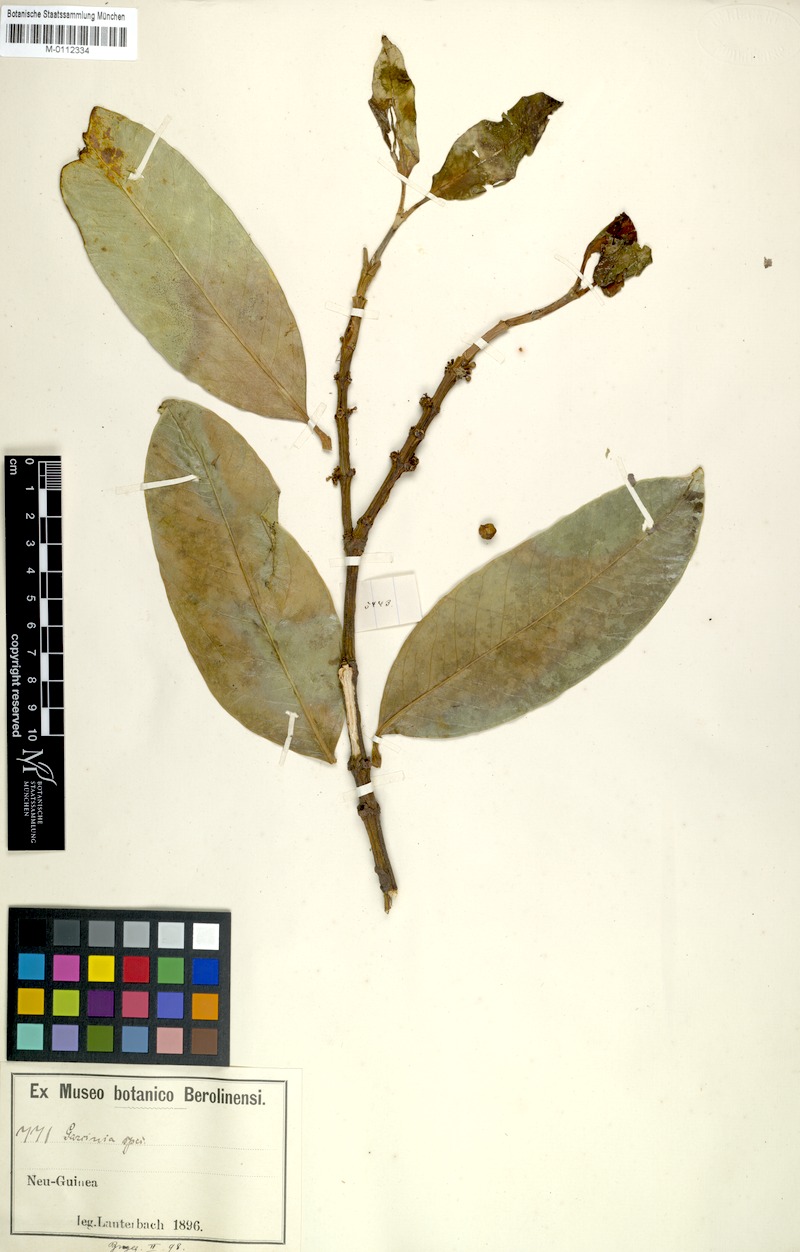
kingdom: Plantae
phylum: Tracheophyta
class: Magnoliopsida
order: Malpighiales
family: Clusiaceae
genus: Garcinia
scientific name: Garcinia warburgiana
